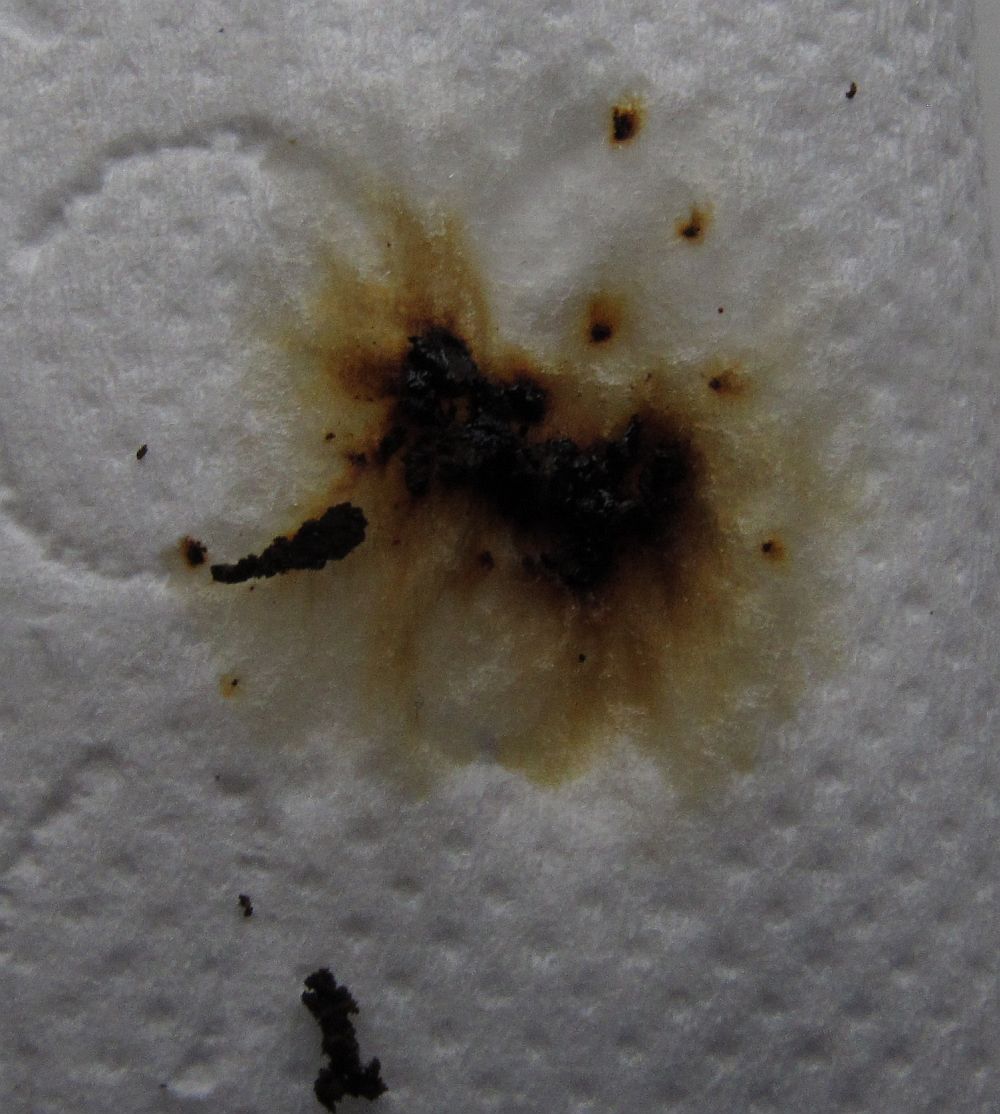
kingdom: Fungi
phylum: Ascomycota
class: Sordariomycetes
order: Xylariales
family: Hypoxylaceae
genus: Hypoxylon
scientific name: Hypoxylon petriniae
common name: nedsænket kulbær
